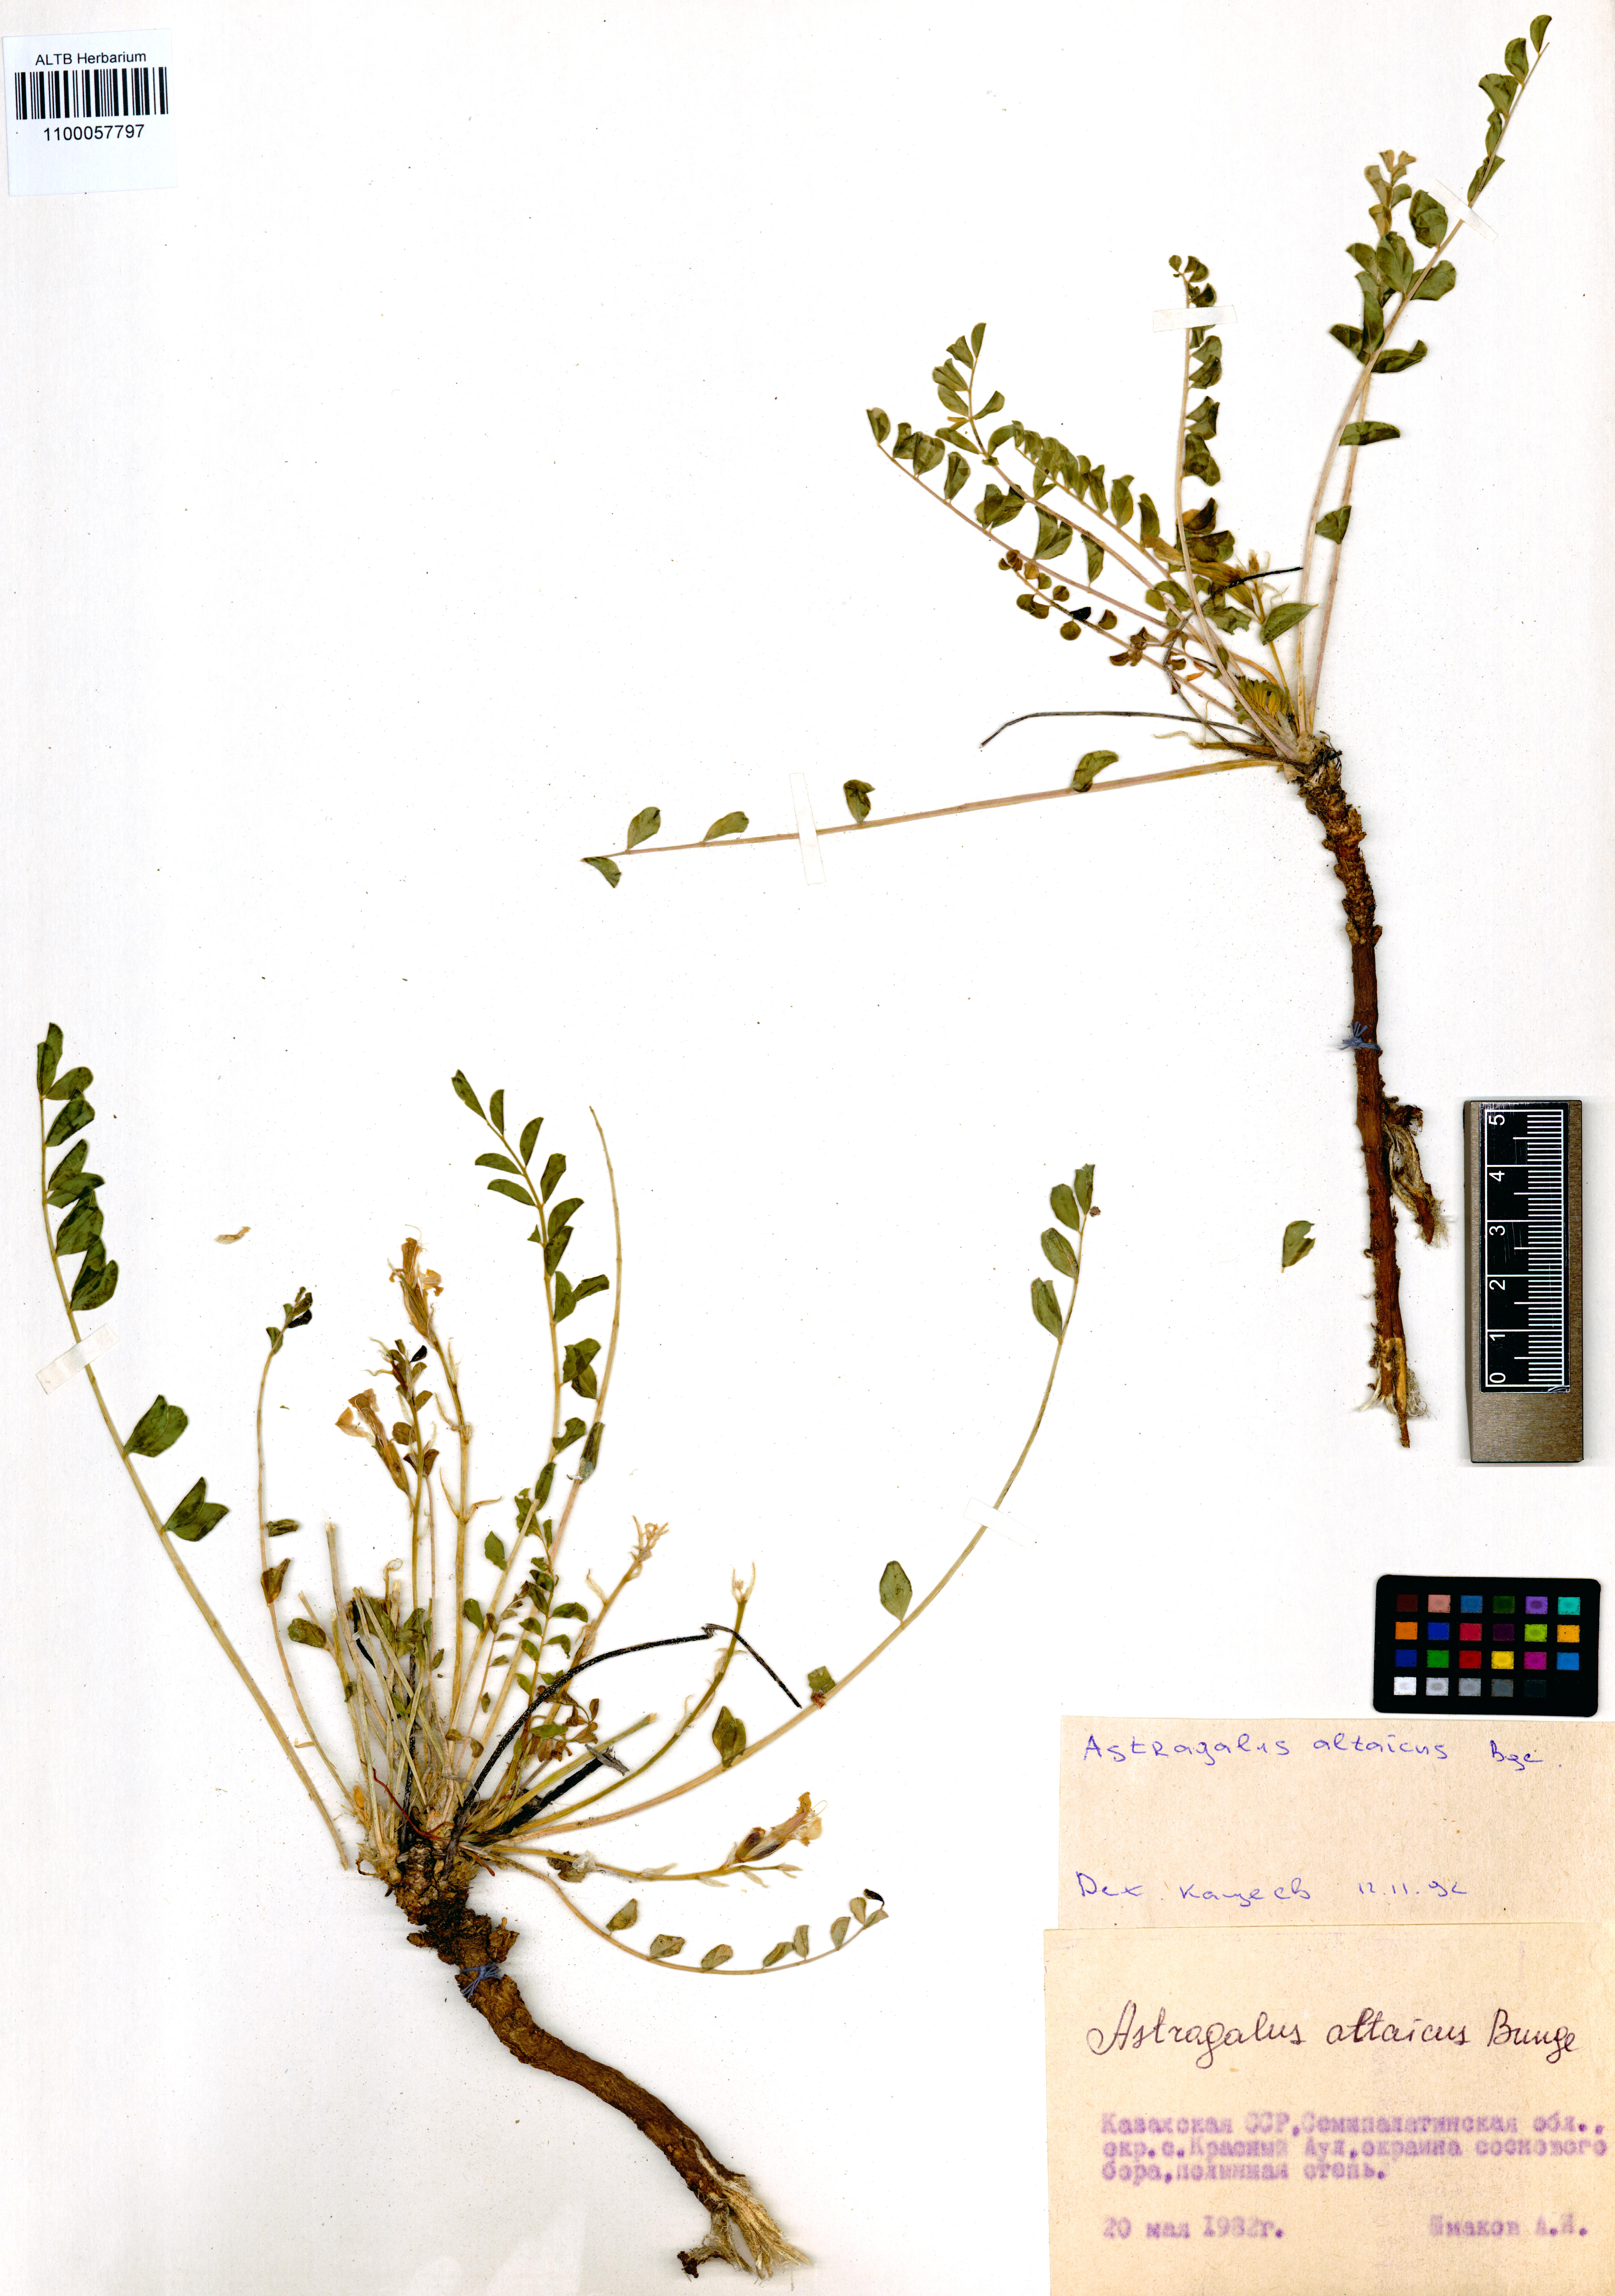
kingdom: Plantae
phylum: Tracheophyta
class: Magnoliopsida
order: Fabales
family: Fabaceae
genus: Astragalus
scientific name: Astragalus altaicola
